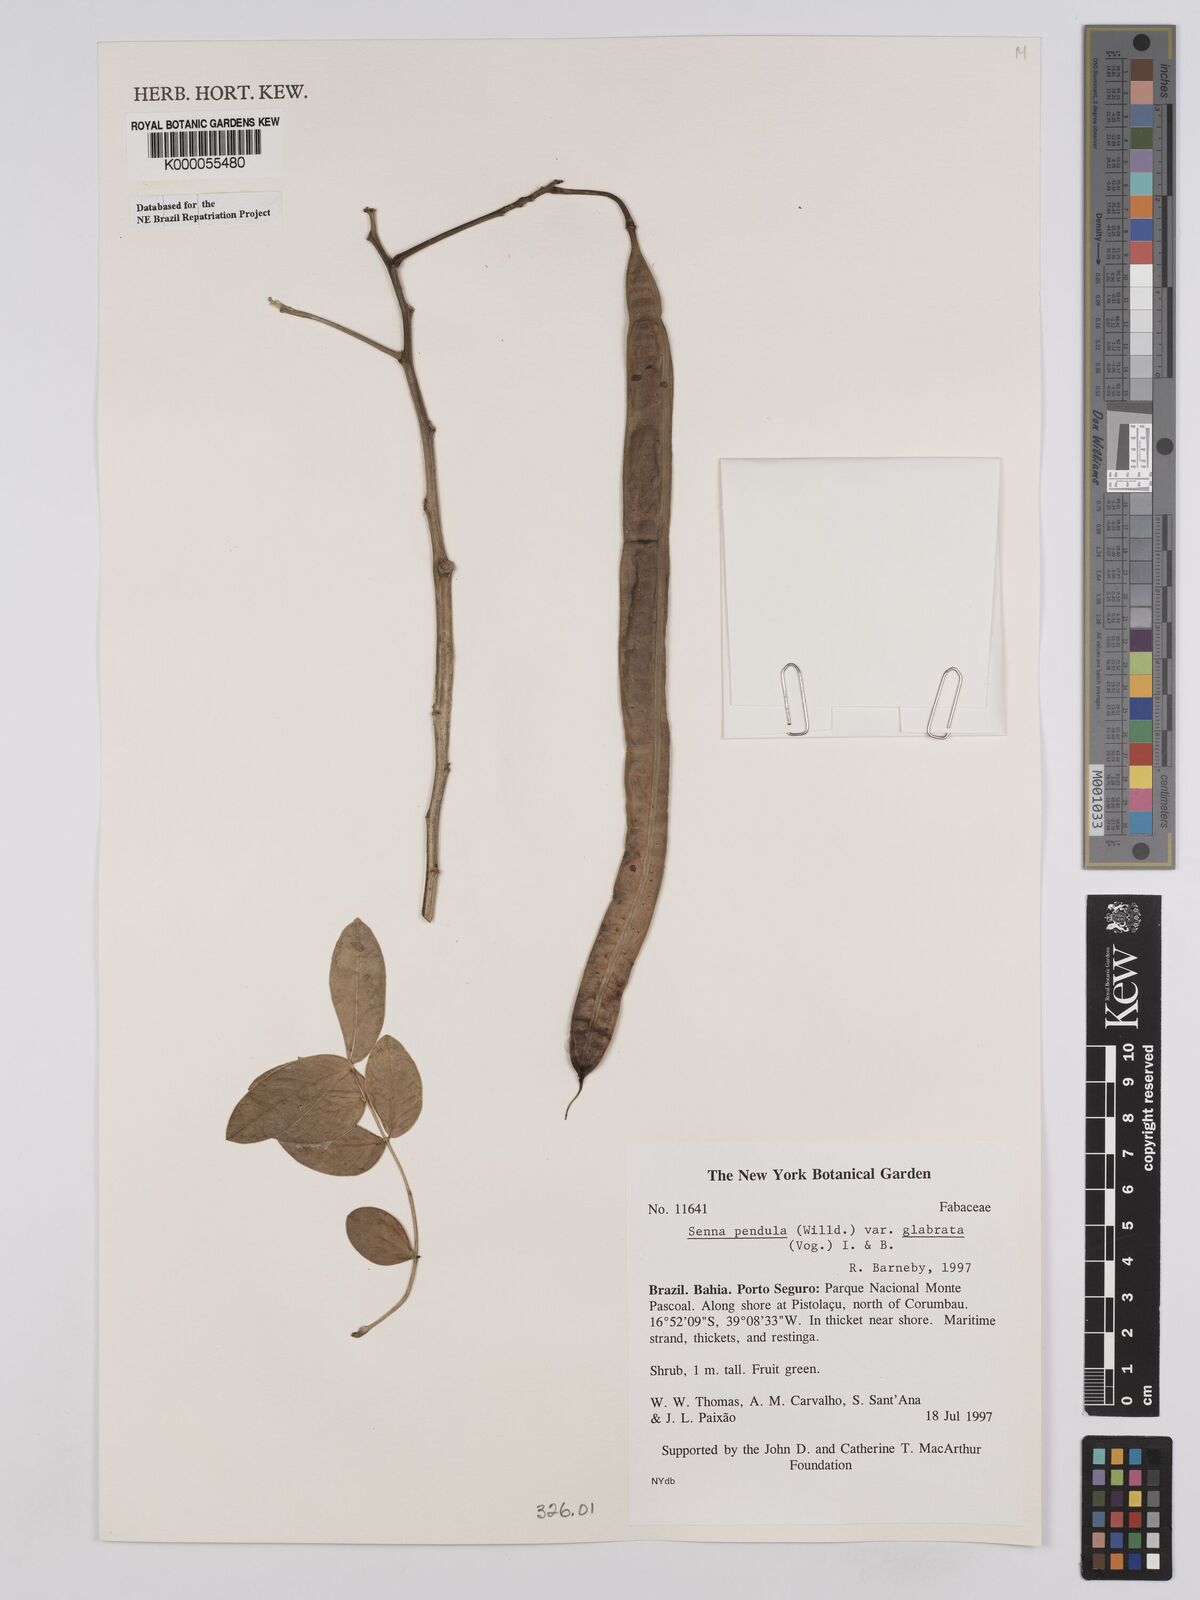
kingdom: Plantae
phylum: Tracheophyta
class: Magnoliopsida
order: Fabales
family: Fabaceae
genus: Senna
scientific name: Senna pendula
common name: Easter cassia
